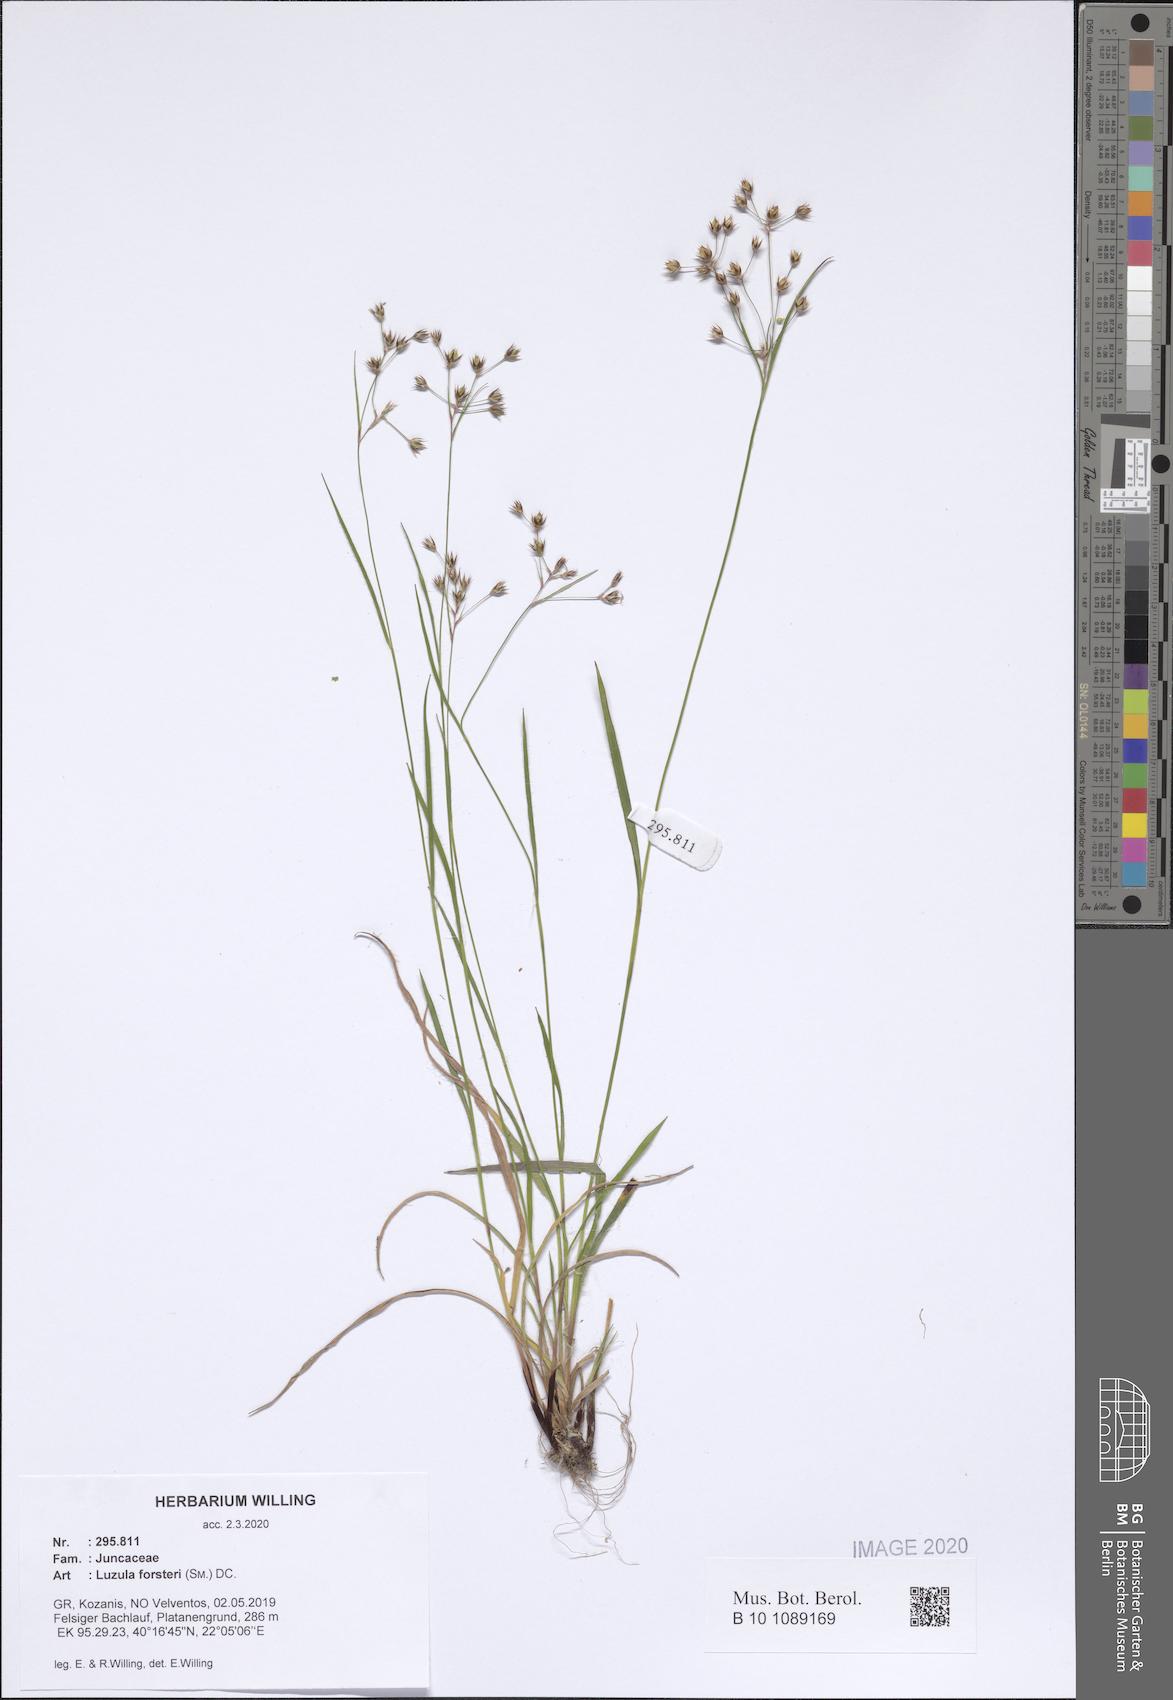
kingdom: Plantae
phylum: Tracheophyta
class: Liliopsida
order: Poales
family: Juncaceae
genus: Luzula
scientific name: Luzula forsteri
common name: Southern wood-rush
